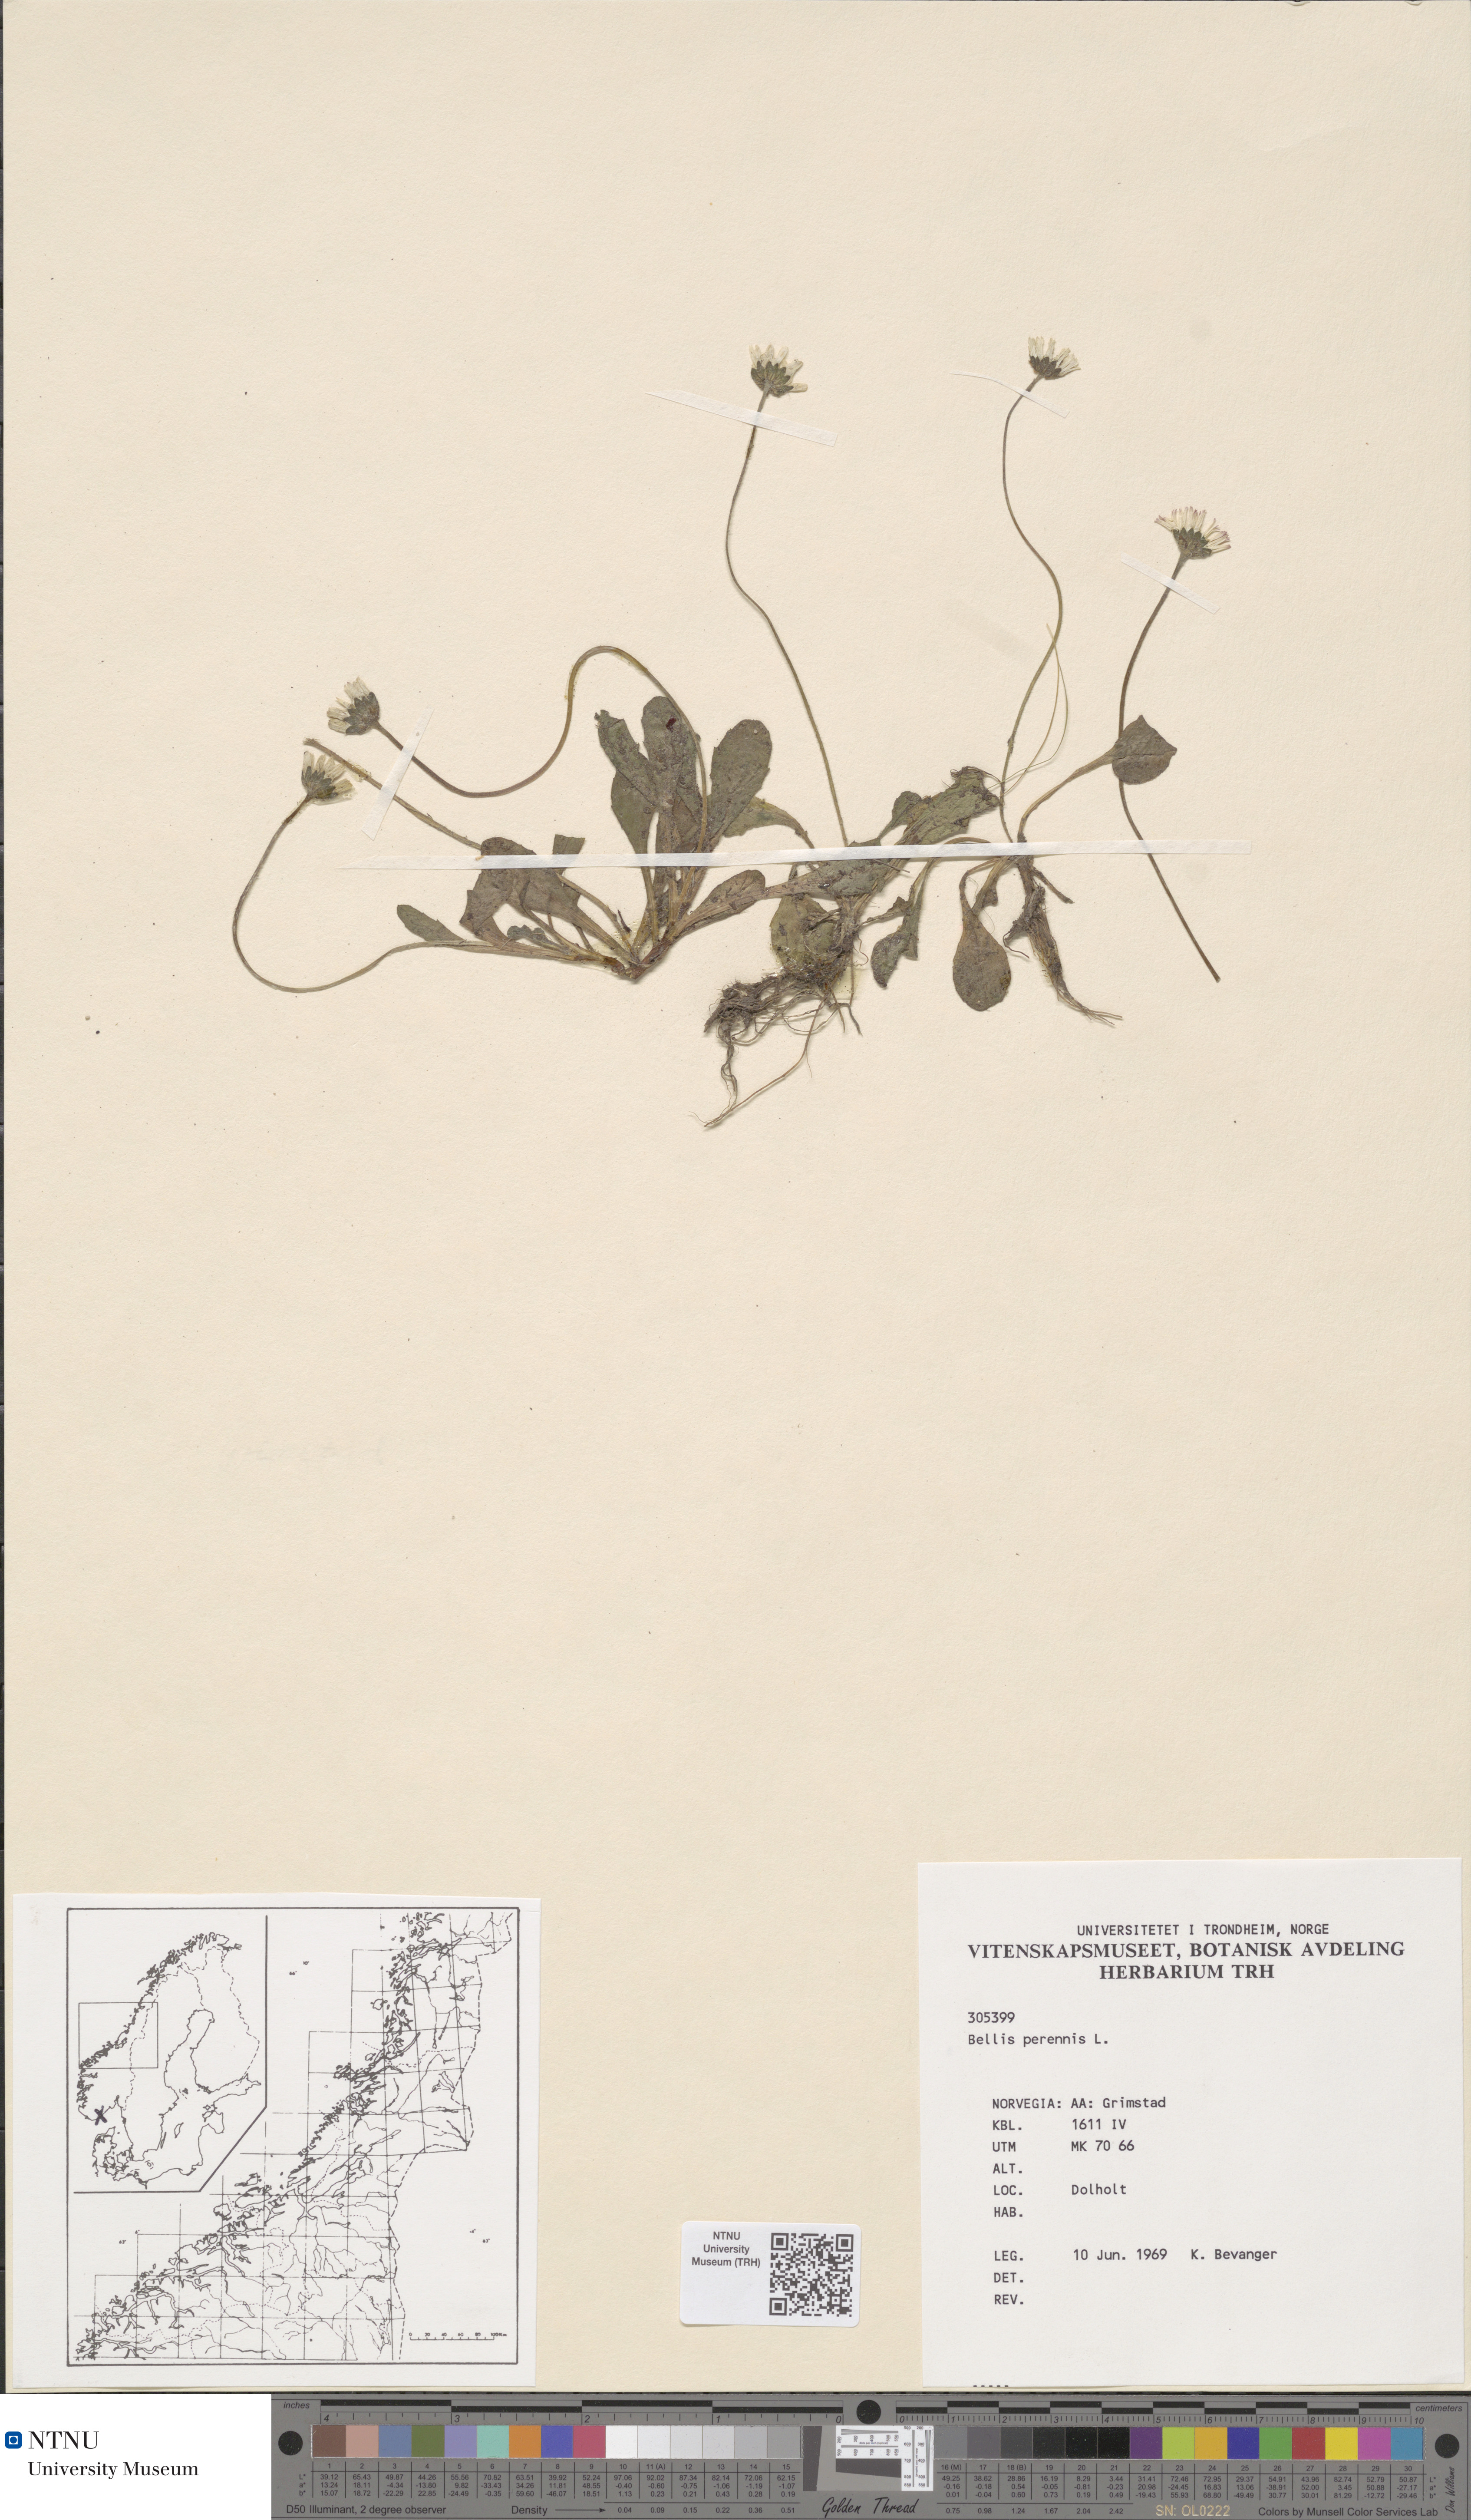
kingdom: Plantae
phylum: Tracheophyta
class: Magnoliopsida
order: Asterales
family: Asteraceae
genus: Bellis
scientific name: Bellis perennis
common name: Lawndaisy
